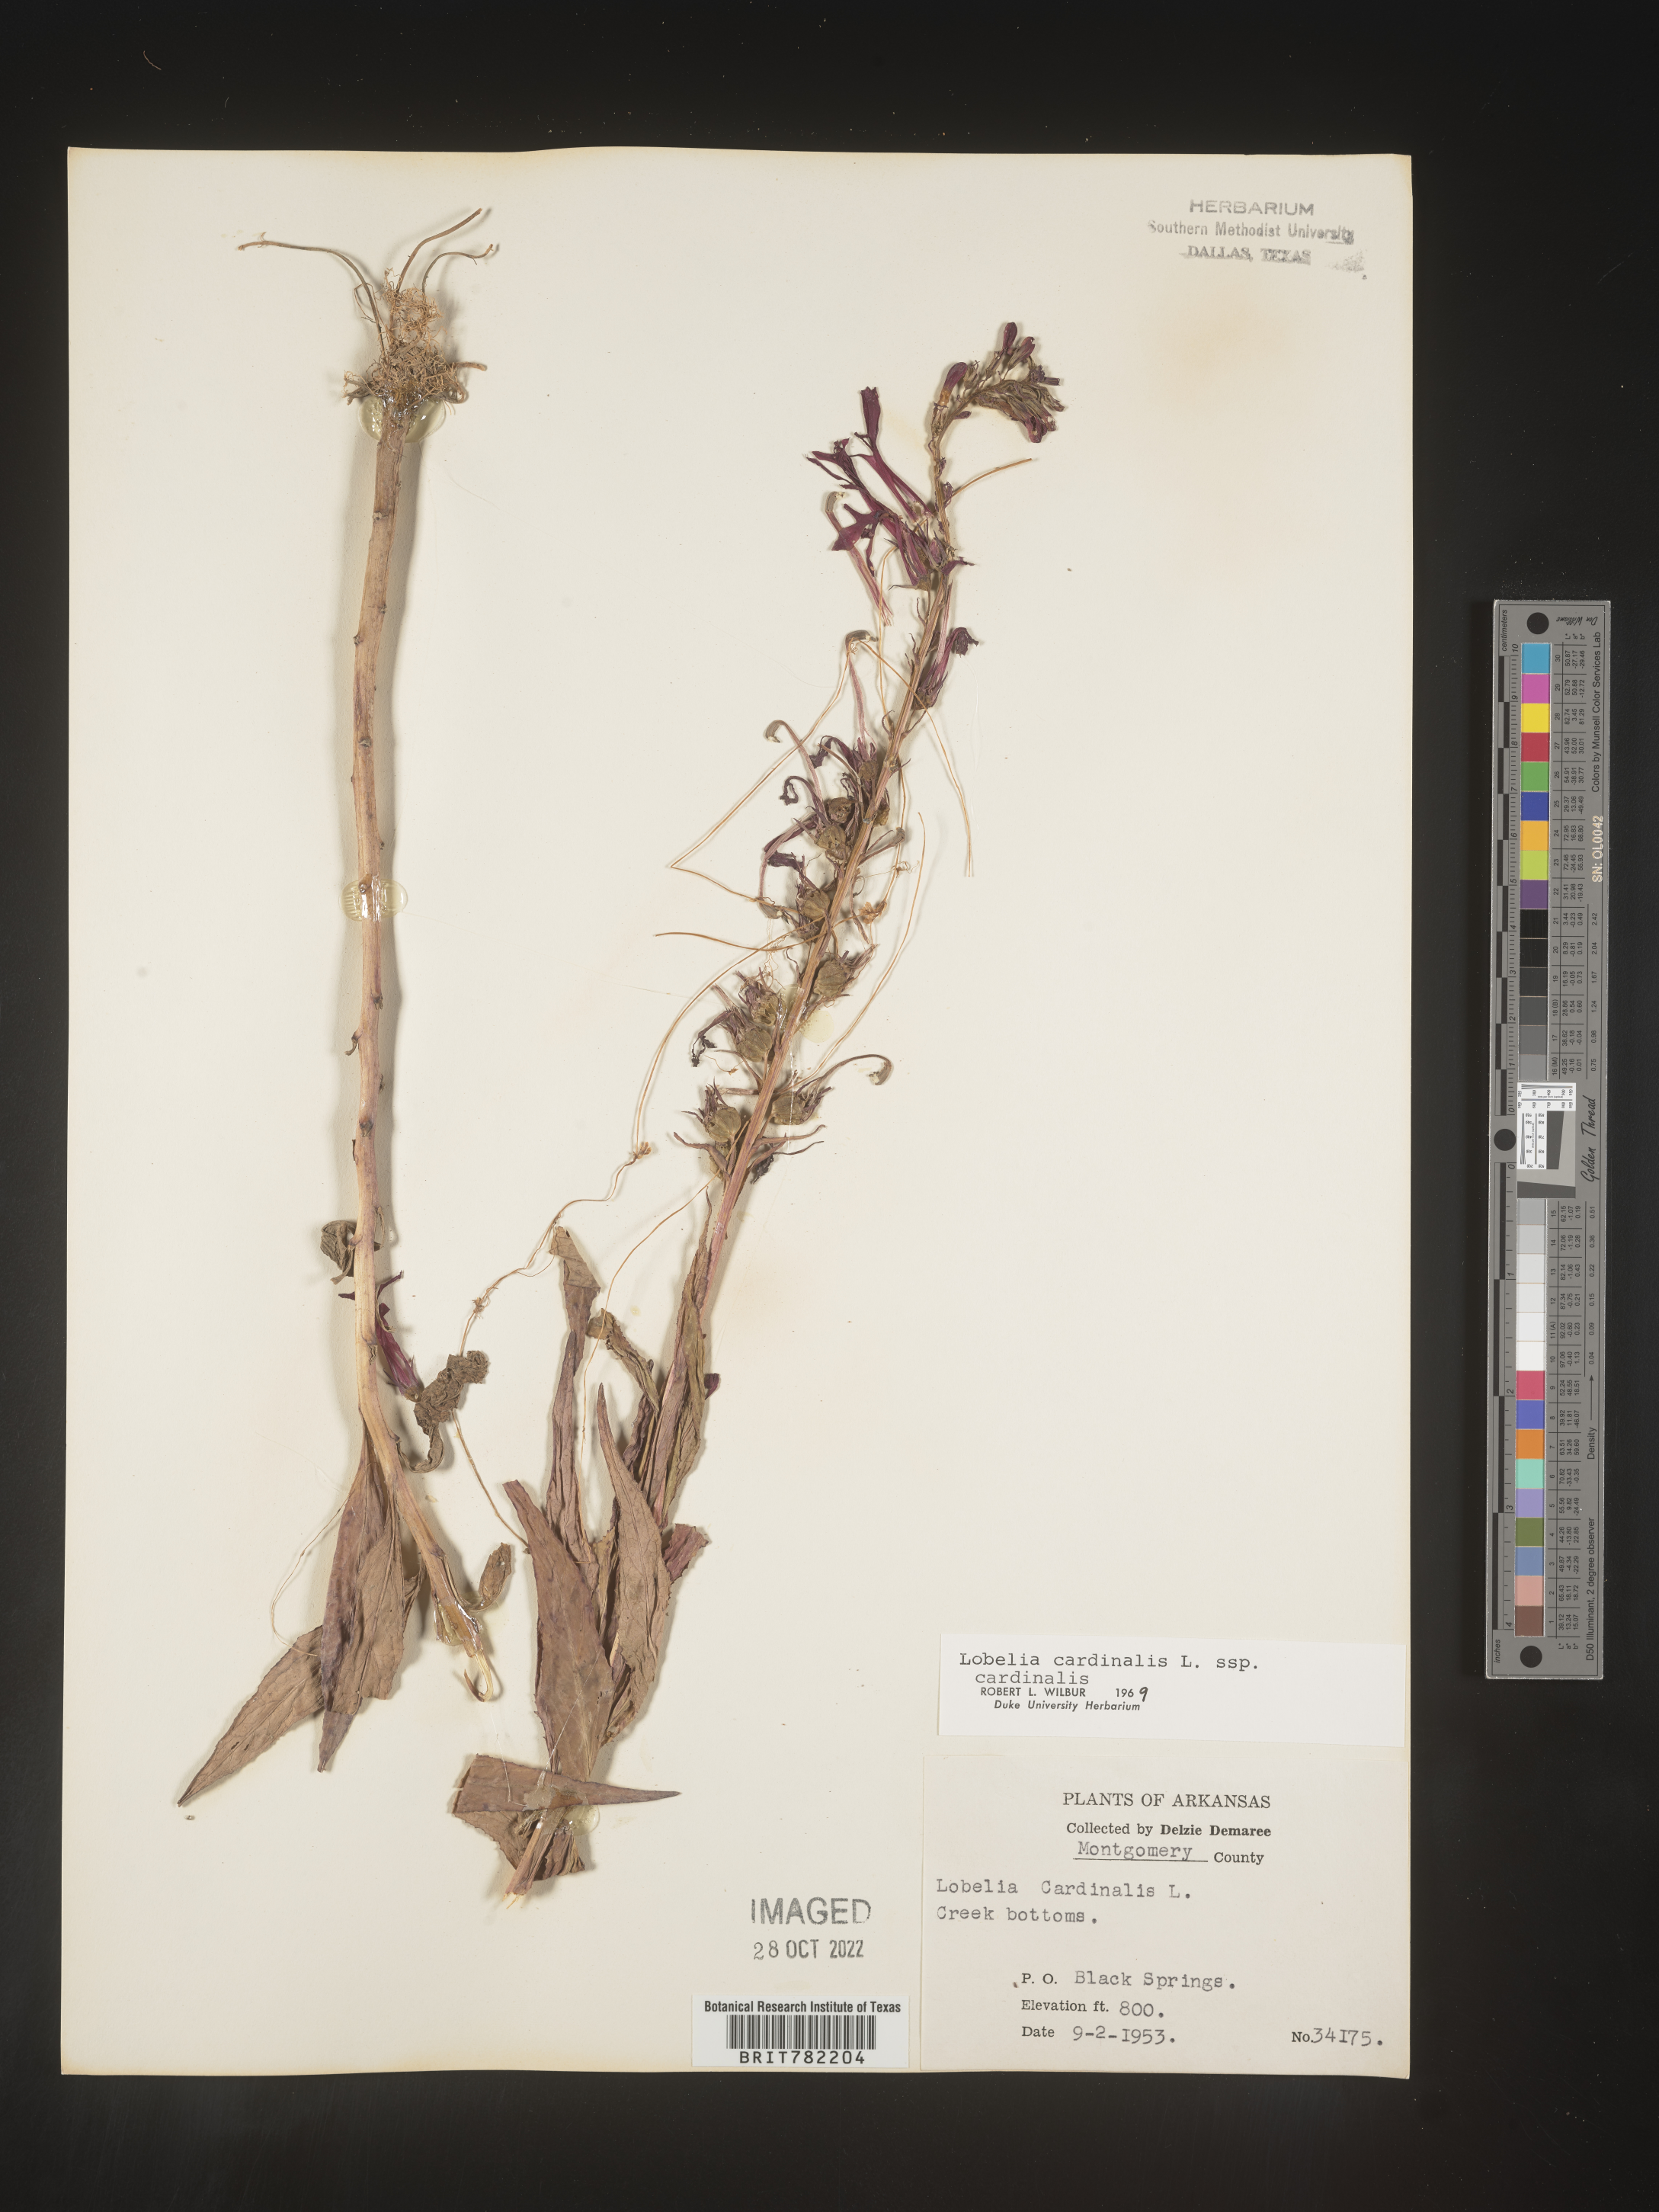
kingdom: Plantae
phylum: Tracheophyta
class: Magnoliopsida
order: Asterales
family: Campanulaceae
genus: Lobelia
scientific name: Lobelia cardinalis
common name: Cardinal flower
